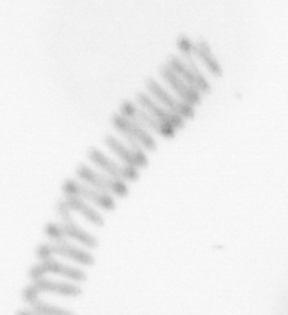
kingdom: Chromista
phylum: Ochrophyta
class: Bacillariophyceae
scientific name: Bacillariophyceae
